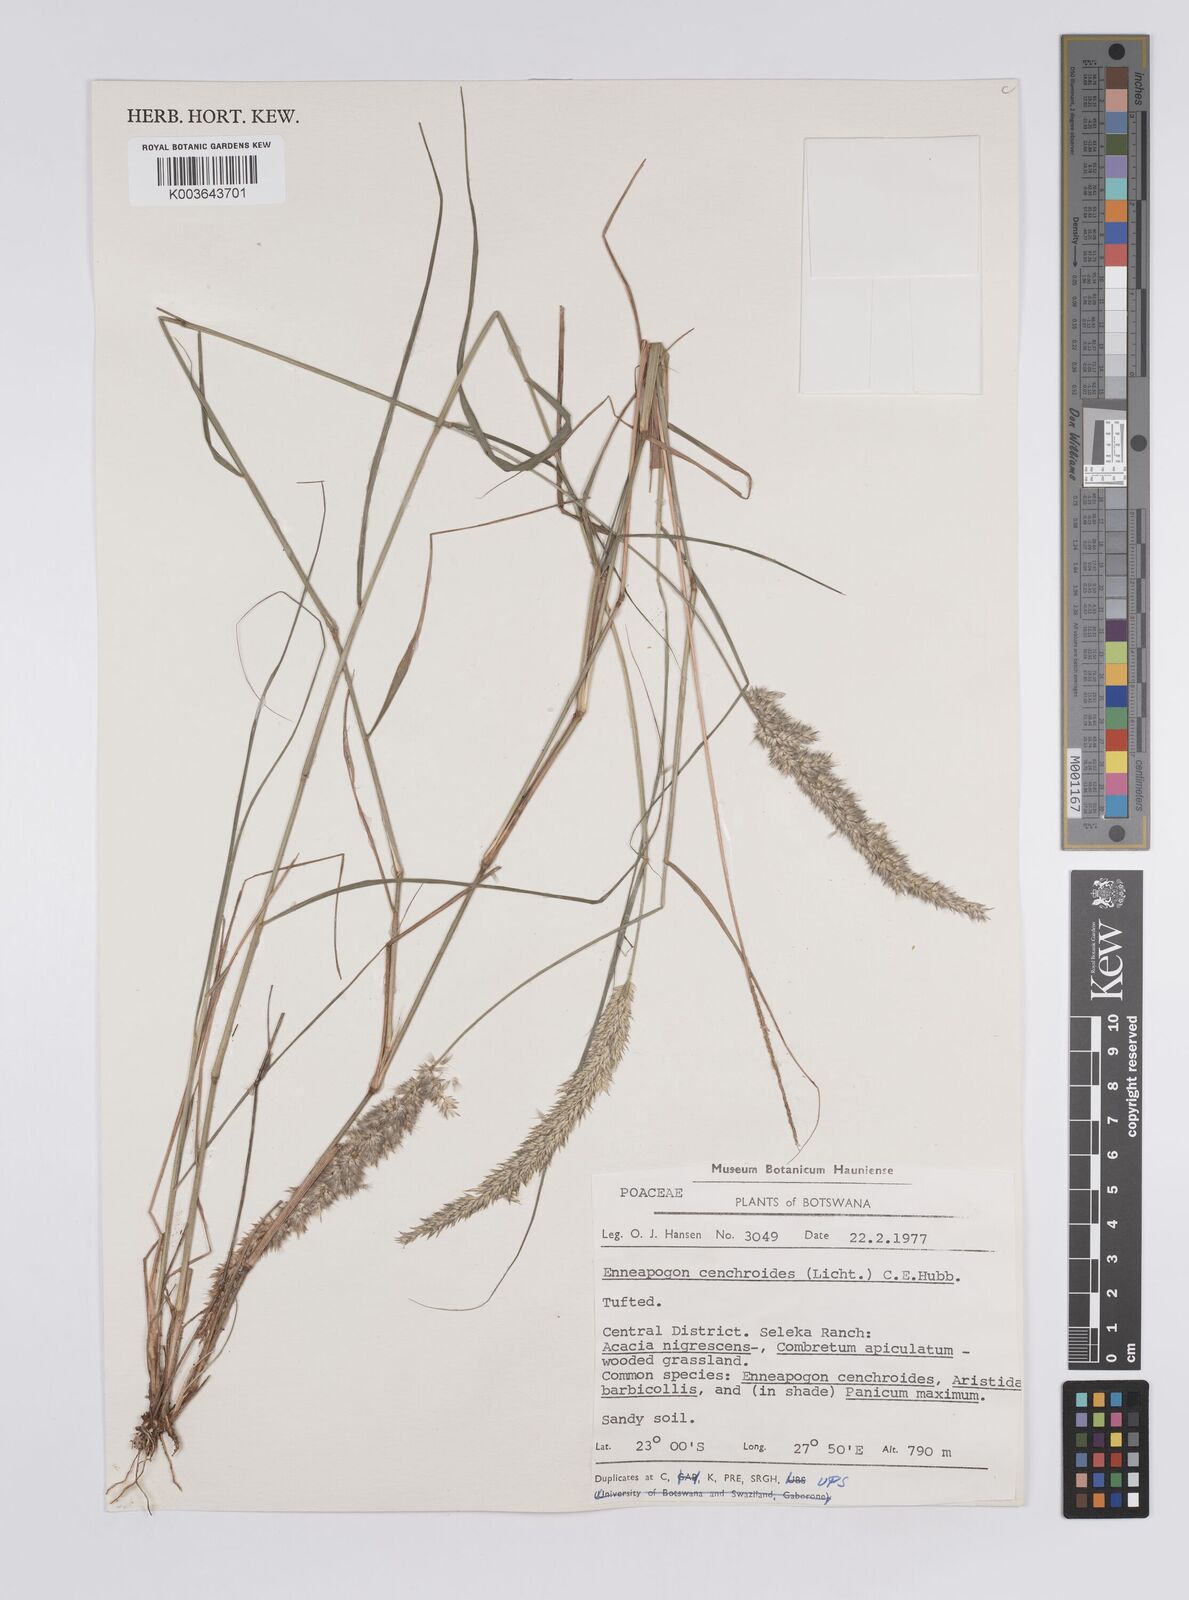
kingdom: Plantae
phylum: Tracheophyta
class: Liliopsida
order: Poales
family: Poaceae
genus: Enneapogon
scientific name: Enneapogon cenchroides
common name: Soft feather pappusgrass
